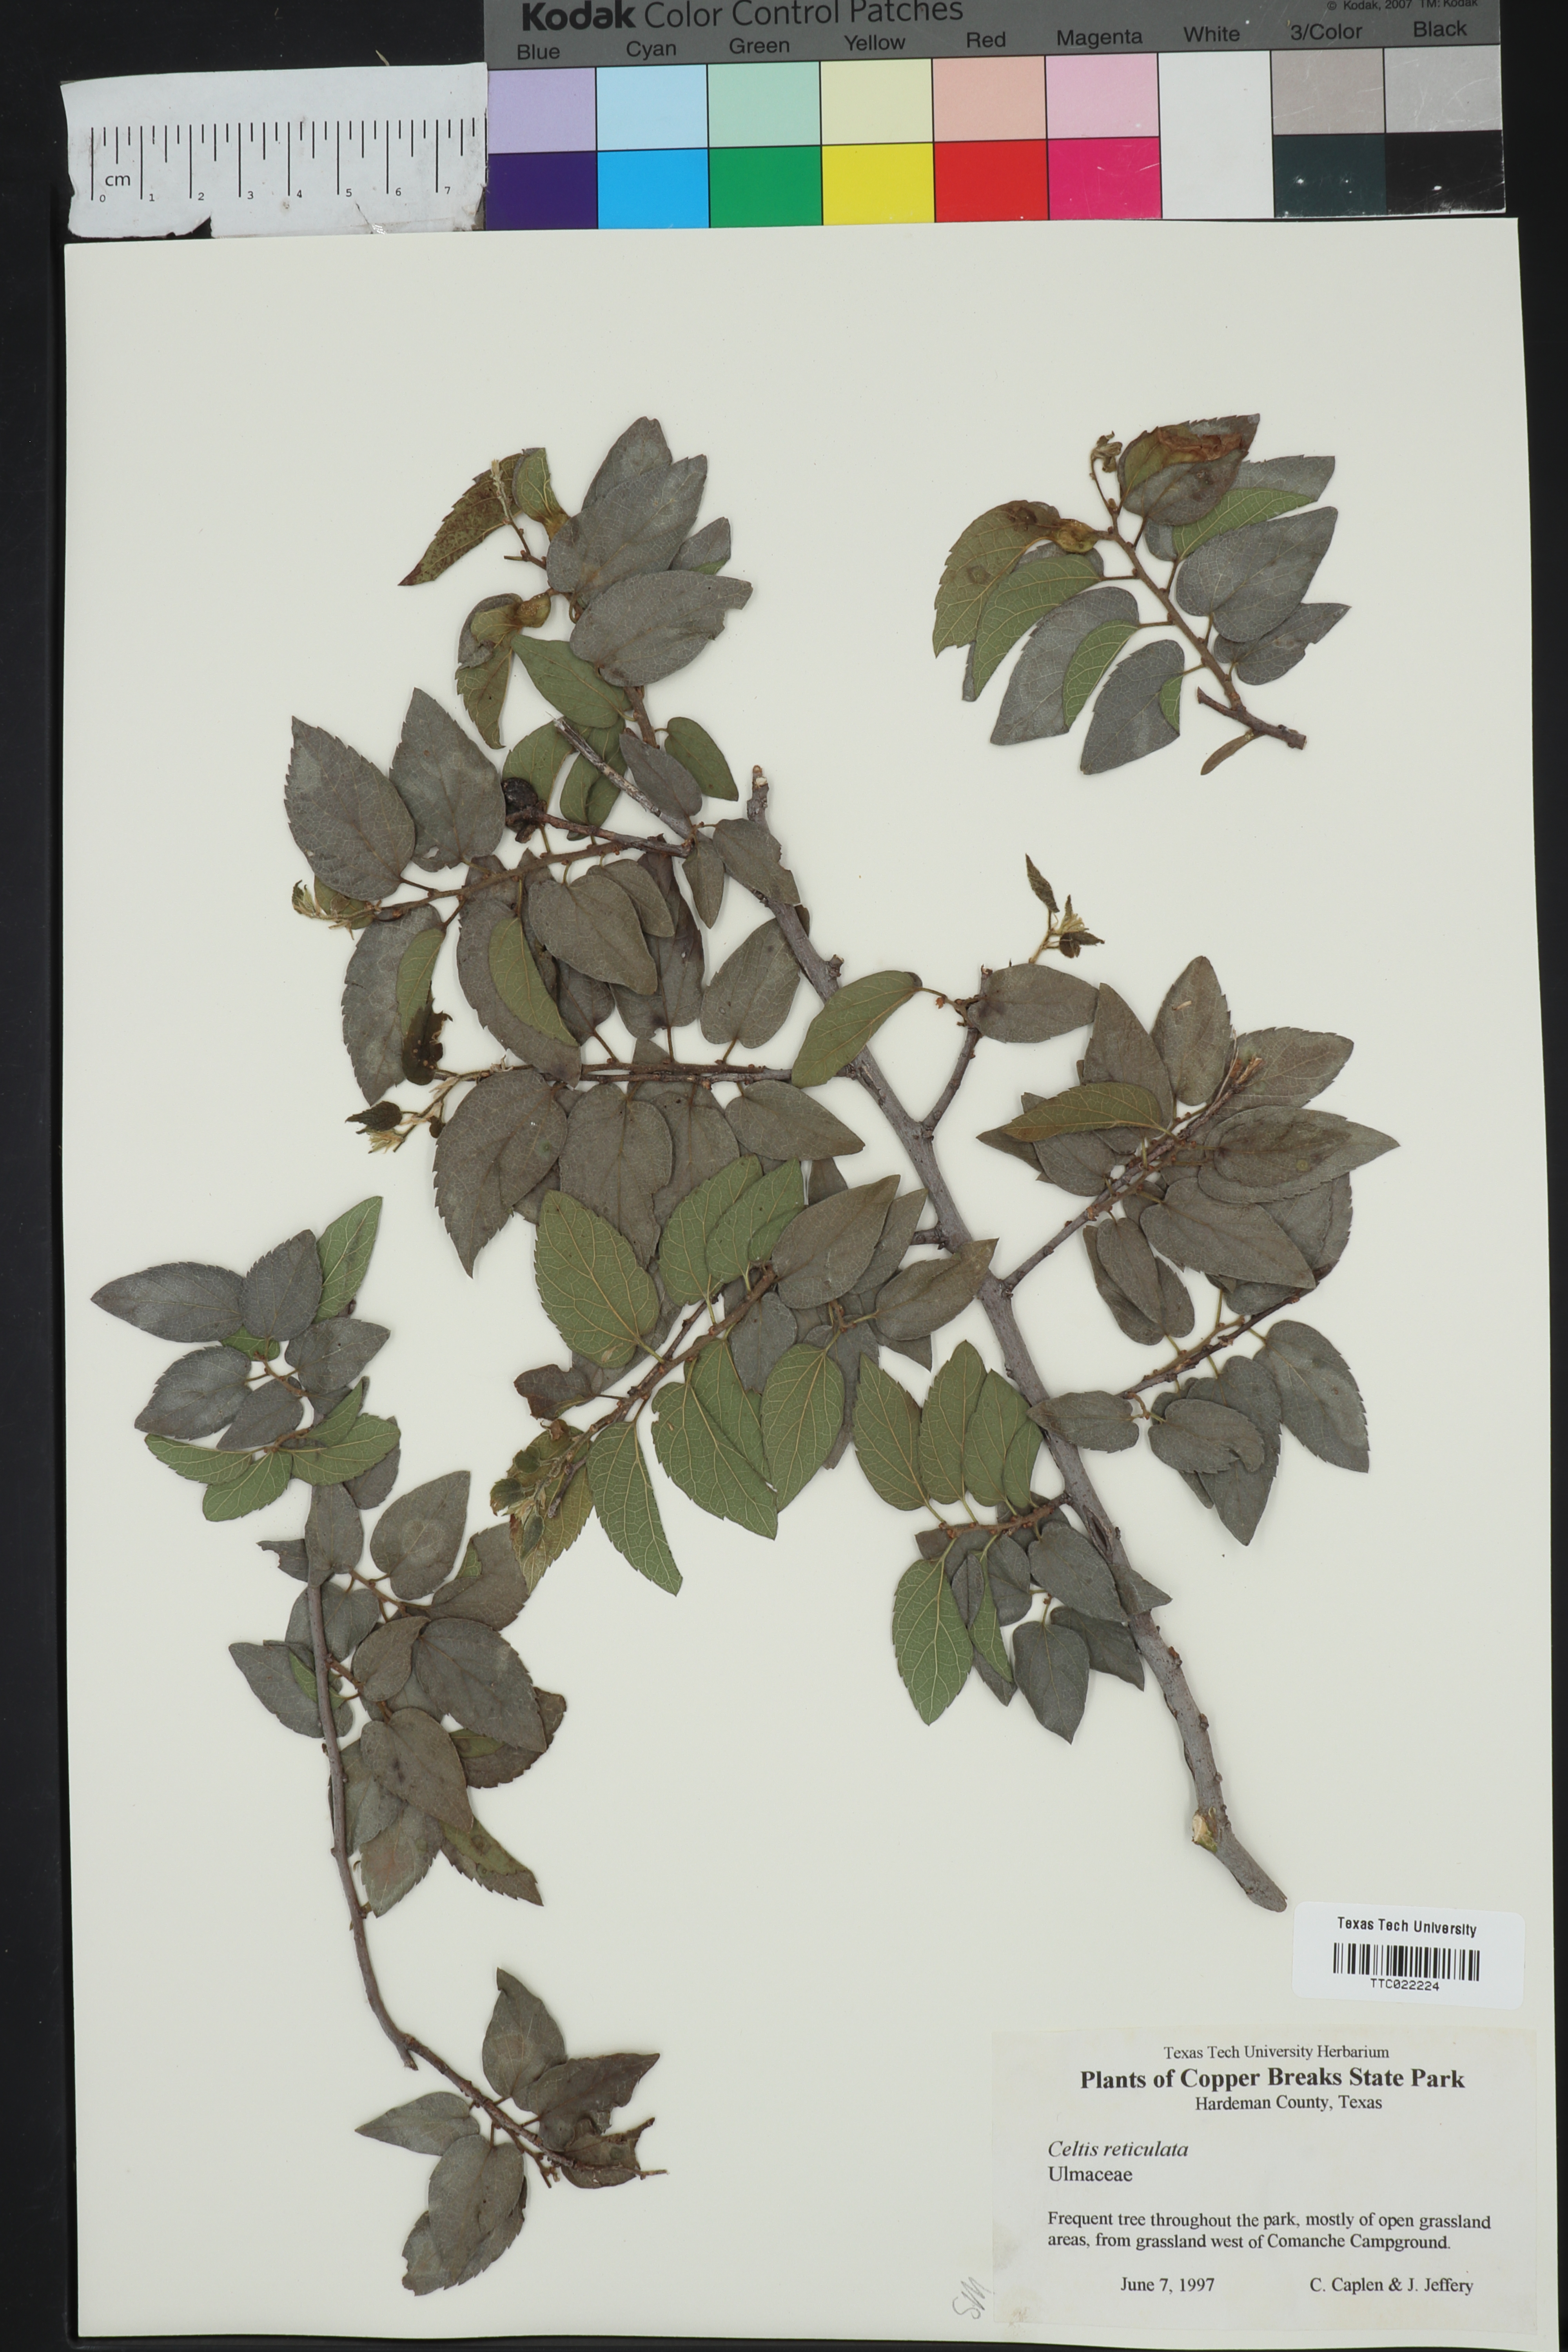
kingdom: Plantae
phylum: Tracheophyta
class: Magnoliopsida
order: Rosales
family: Cannabaceae
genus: Celtis
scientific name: Celtis reticulata
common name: Netleaf hackberry
